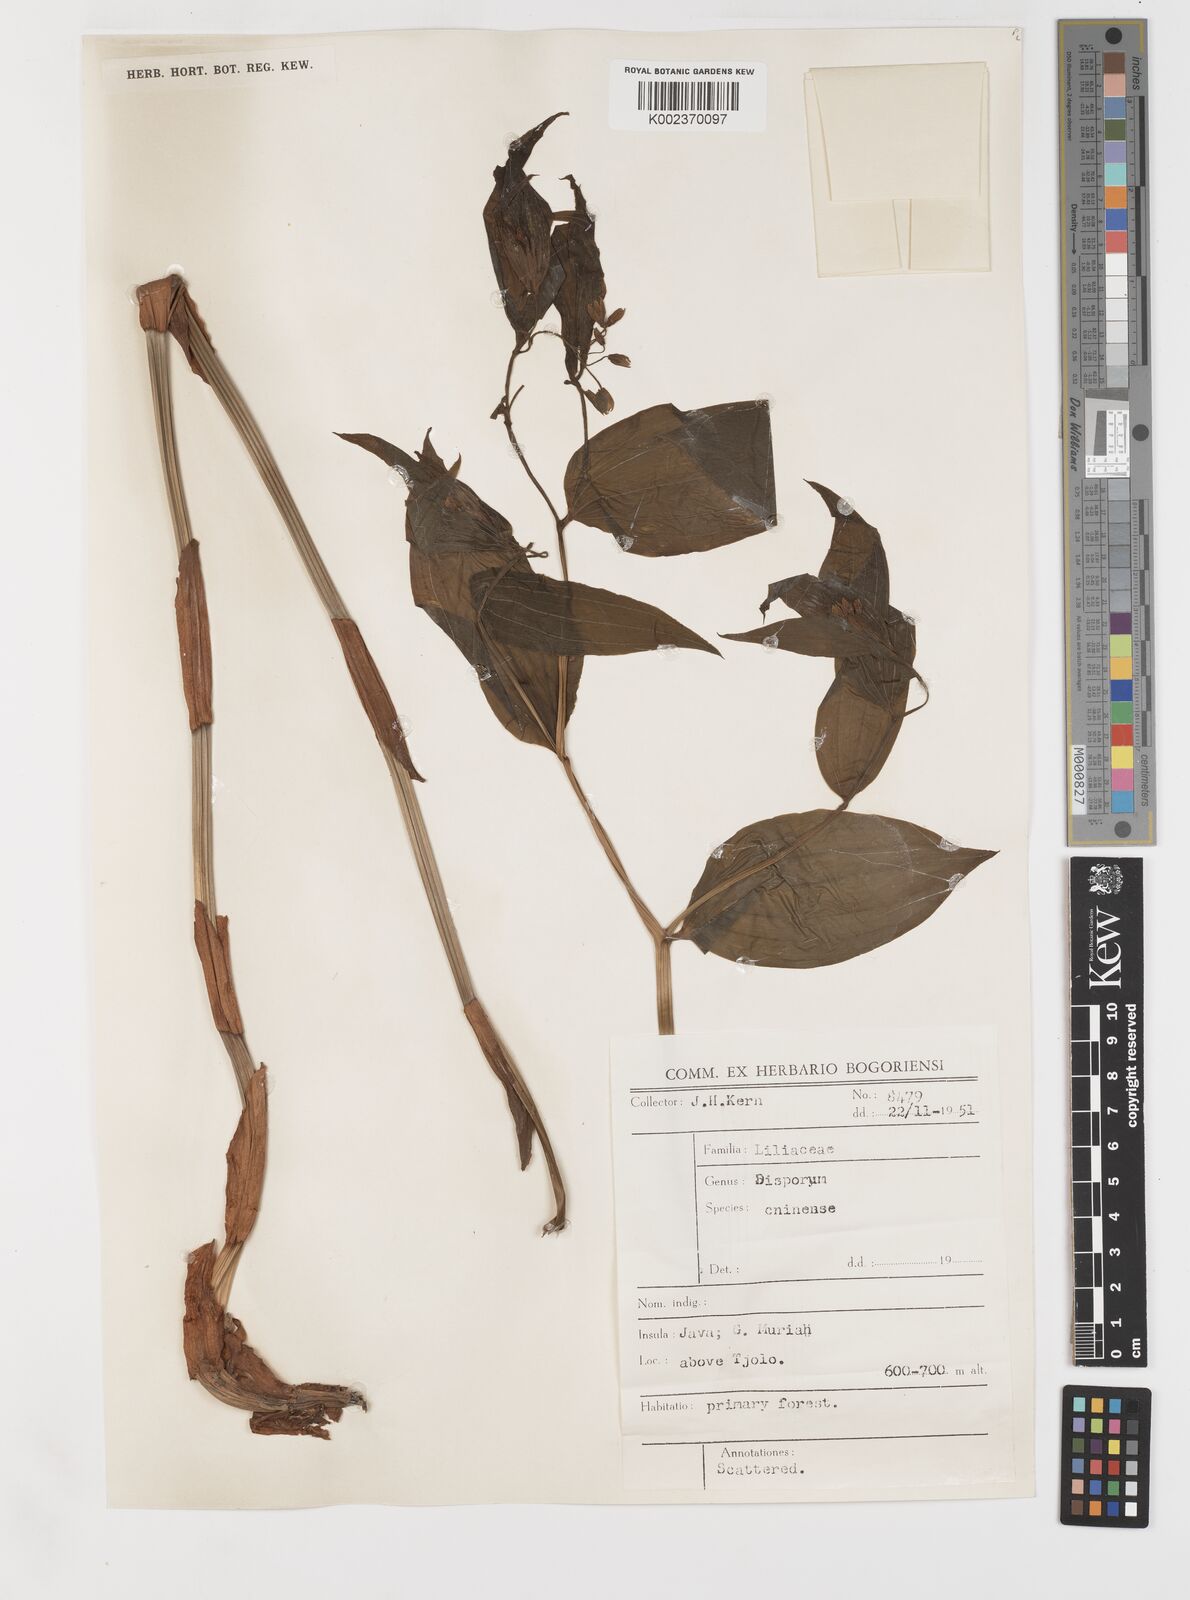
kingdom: Plantae
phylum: Tracheophyta
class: Liliopsida
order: Liliales
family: Colchicaceae
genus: Disporum
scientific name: Disporum cantoniense
